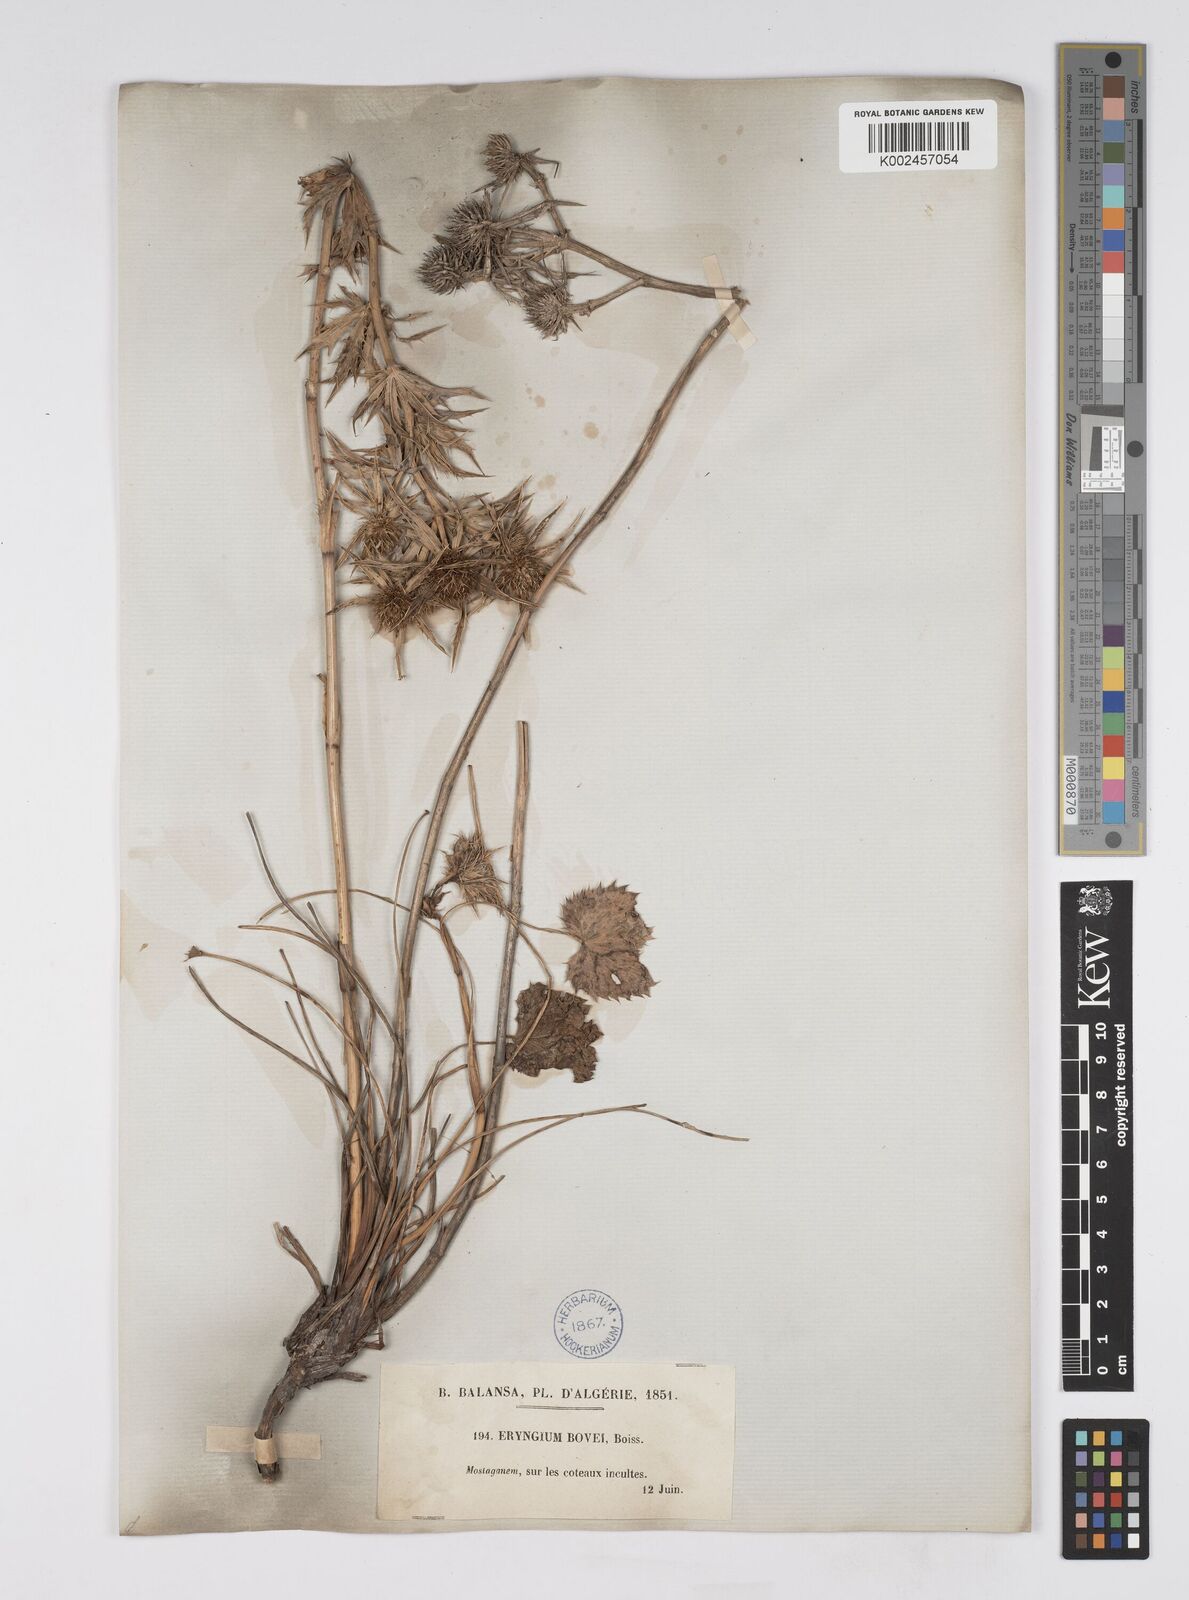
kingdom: Plantae
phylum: Tracheophyta
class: Magnoliopsida
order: Apiales
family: Apiaceae
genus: Eryngium
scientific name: Eryngium tricuspidatum
